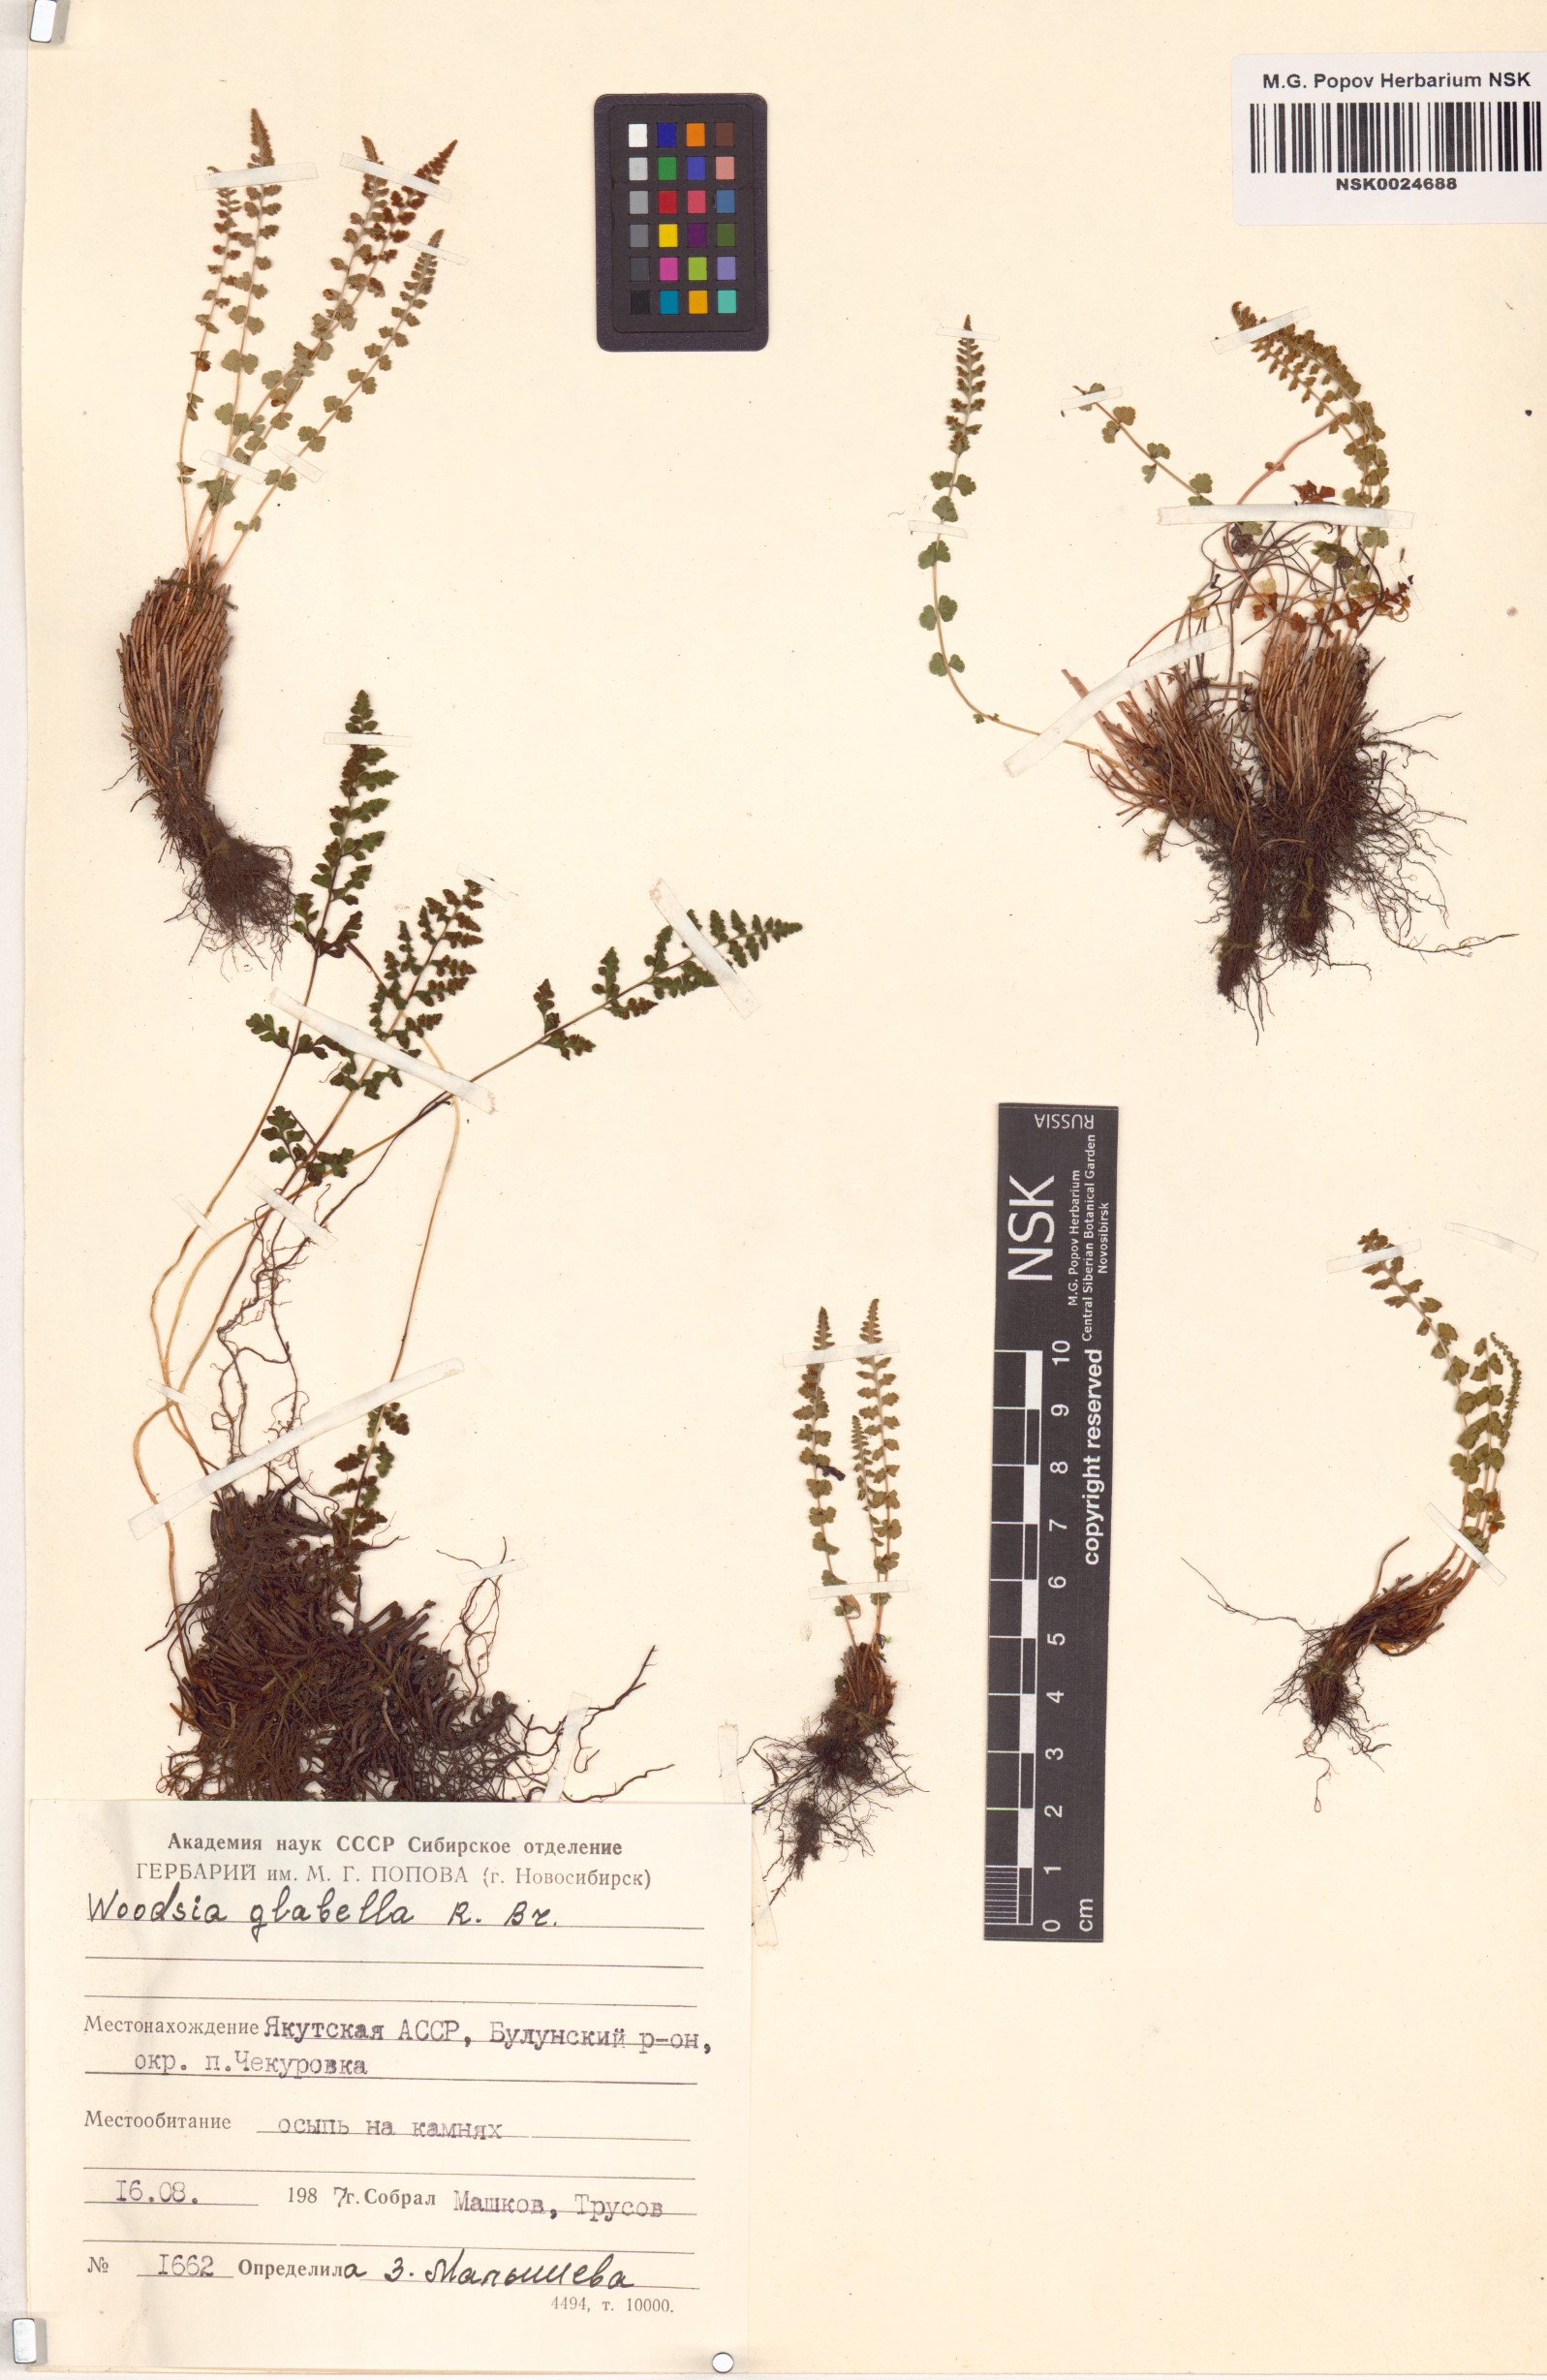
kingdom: Plantae
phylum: Tracheophyta
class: Polypodiopsida
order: Polypodiales
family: Woodsiaceae
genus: Woodsia
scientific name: Woodsia glabella
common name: Smooth woodsia
